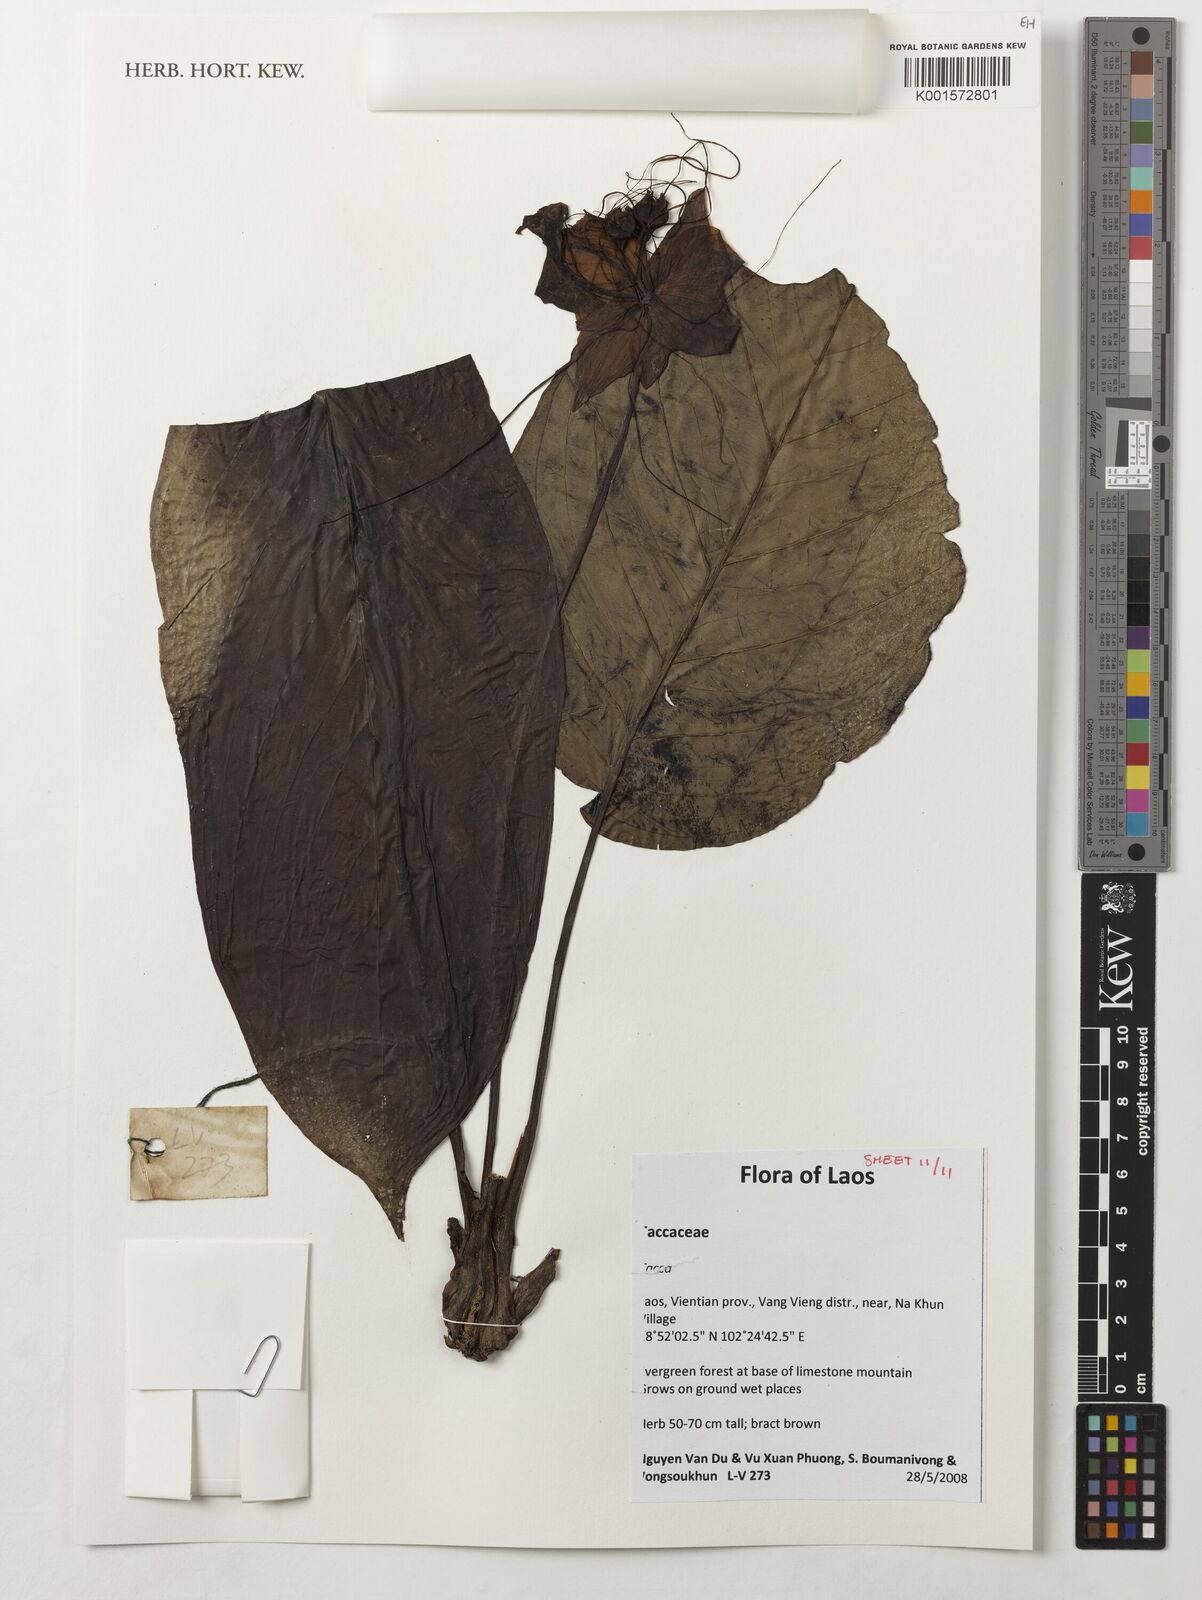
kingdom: Plantae
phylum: Tracheophyta
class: Liliopsida
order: Dioscoreales
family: Dioscoreaceae
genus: Tacca
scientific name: Tacca
